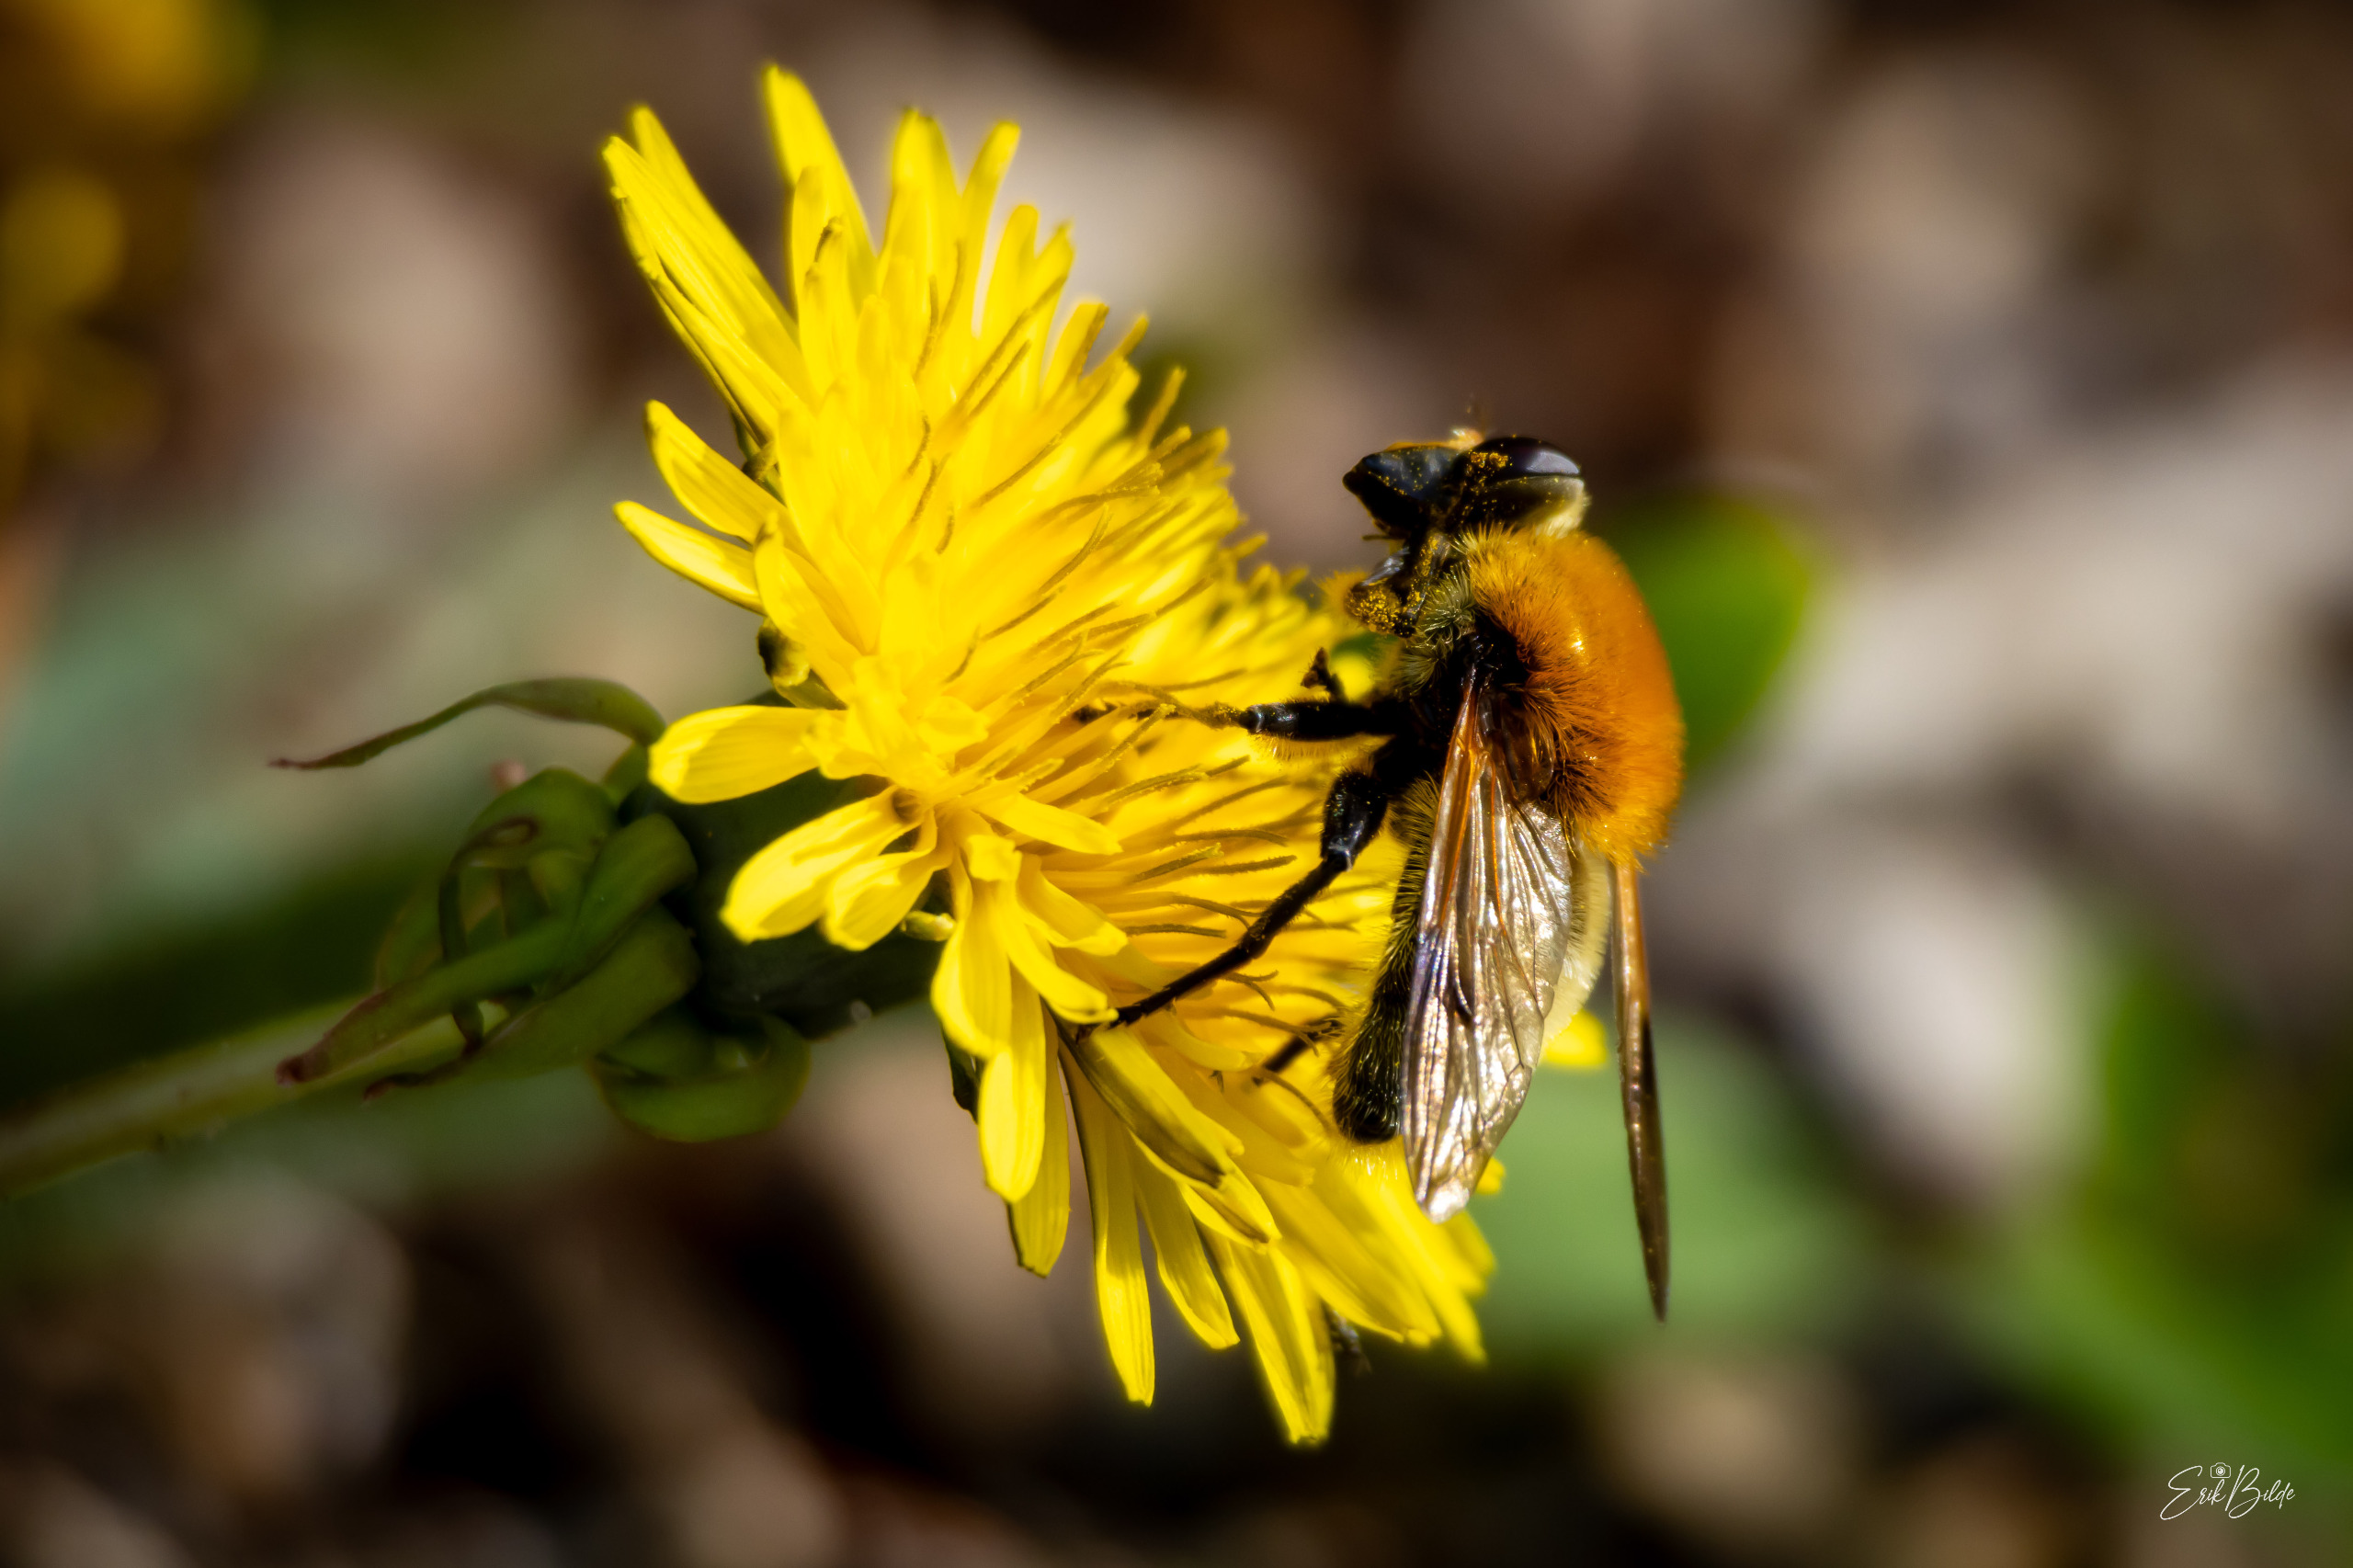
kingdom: Animalia
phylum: Arthropoda
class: Insecta
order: Diptera
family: Syrphidae
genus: Sericomyia
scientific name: Sericomyia superbiens
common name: Brun bjørnesvirreflue
